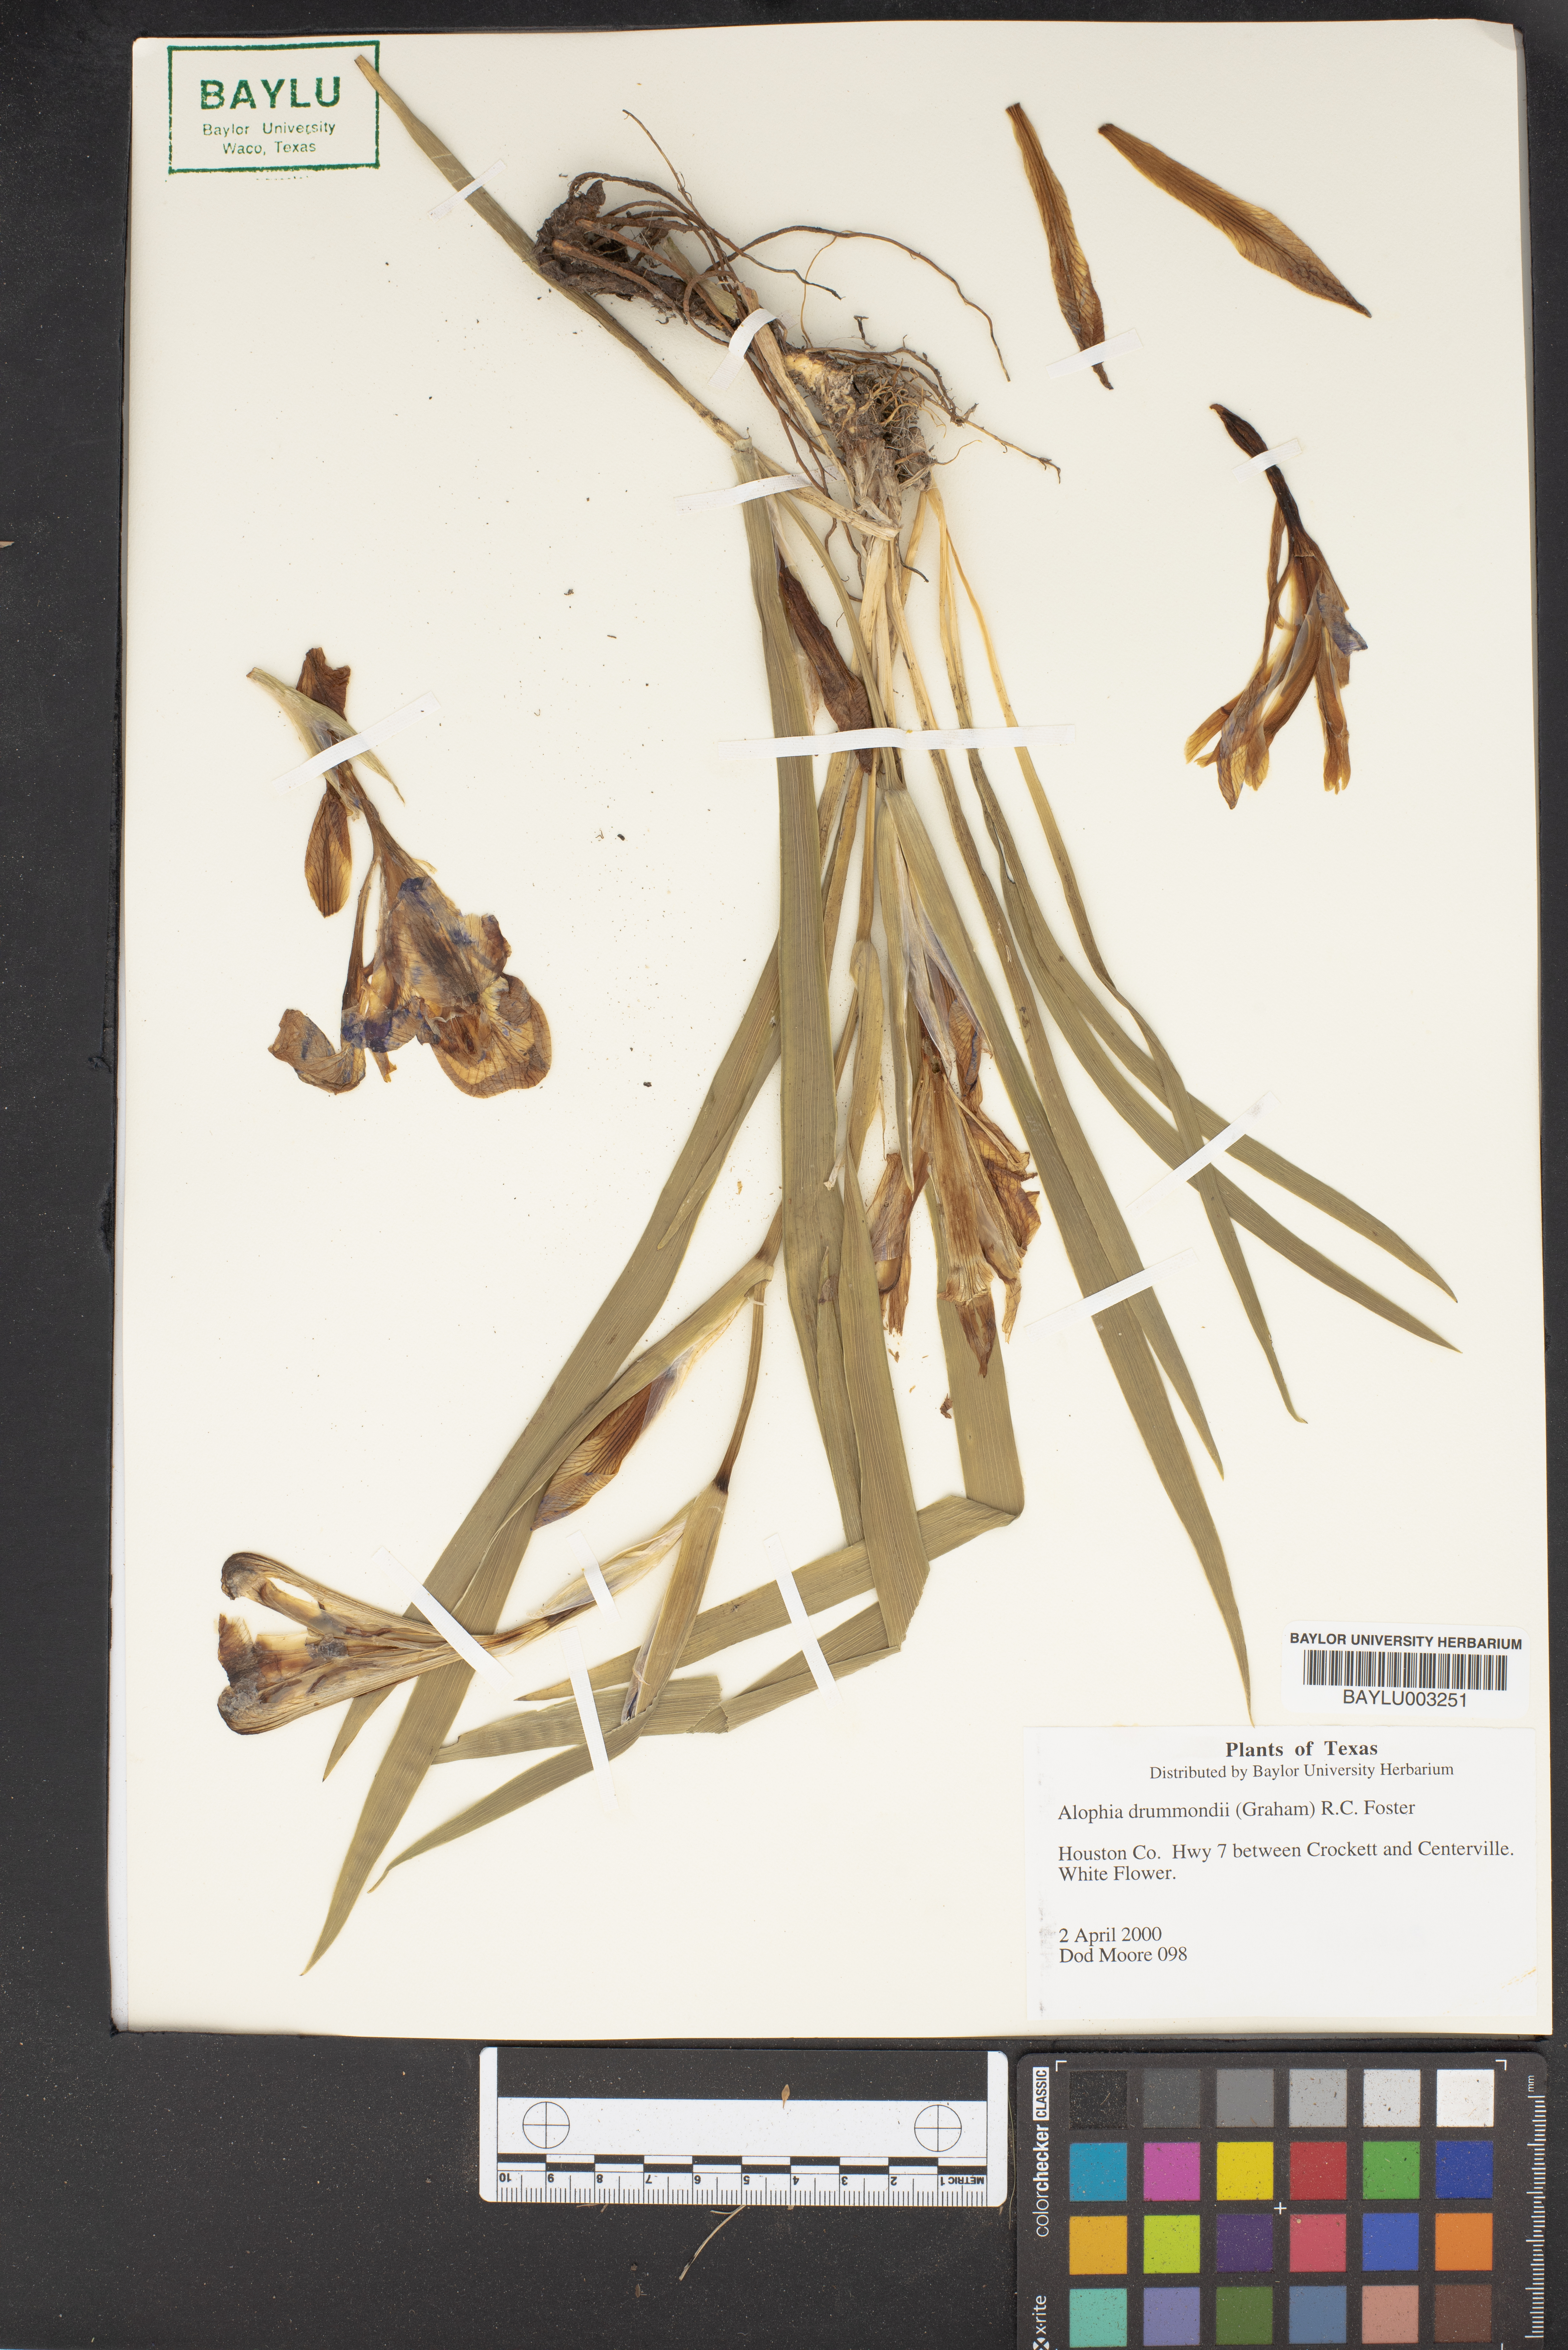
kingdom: Plantae
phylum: Tracheophyta
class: Liliopsida
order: Asparagales
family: Iridaceae
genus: Alophia
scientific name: Alophia drummondii
